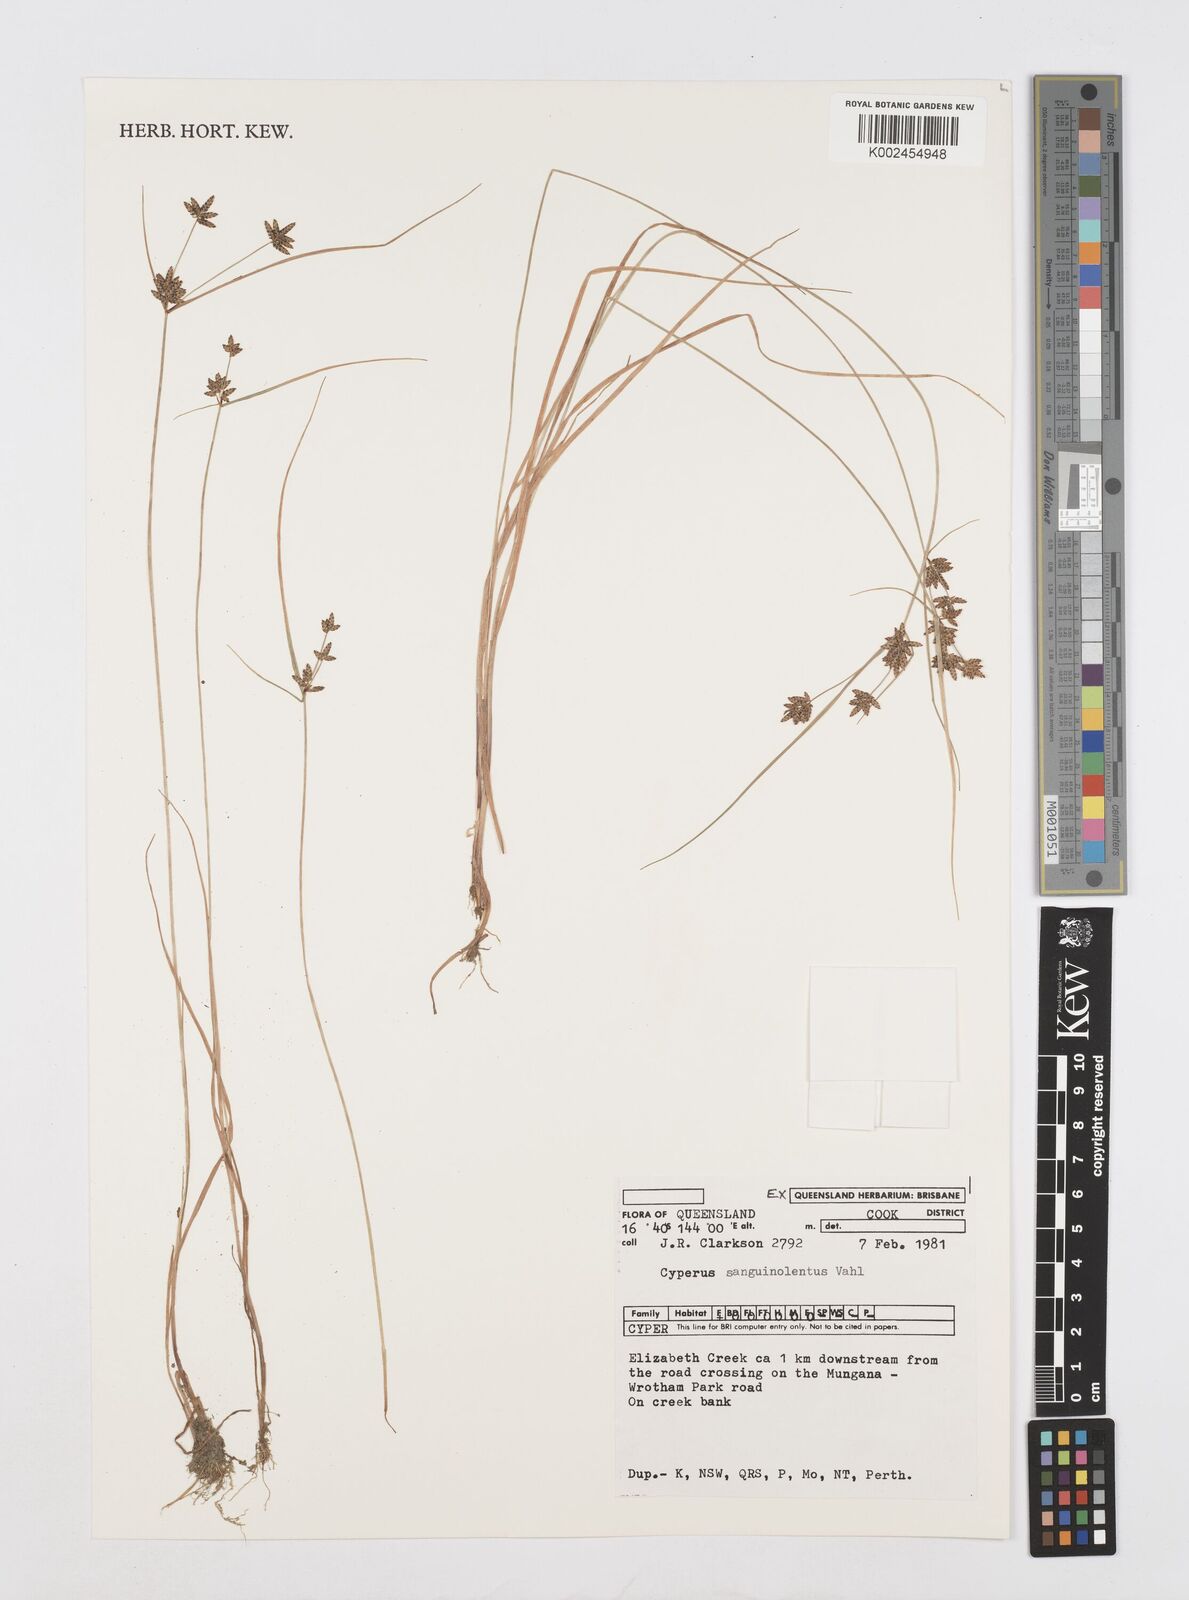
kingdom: Plantae
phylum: Tracheophyta
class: Liliopsida
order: Poales
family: Cyperaceae
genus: Cyperus
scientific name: Cyperus sanguinolentus
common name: Purpleglume flatsedge
